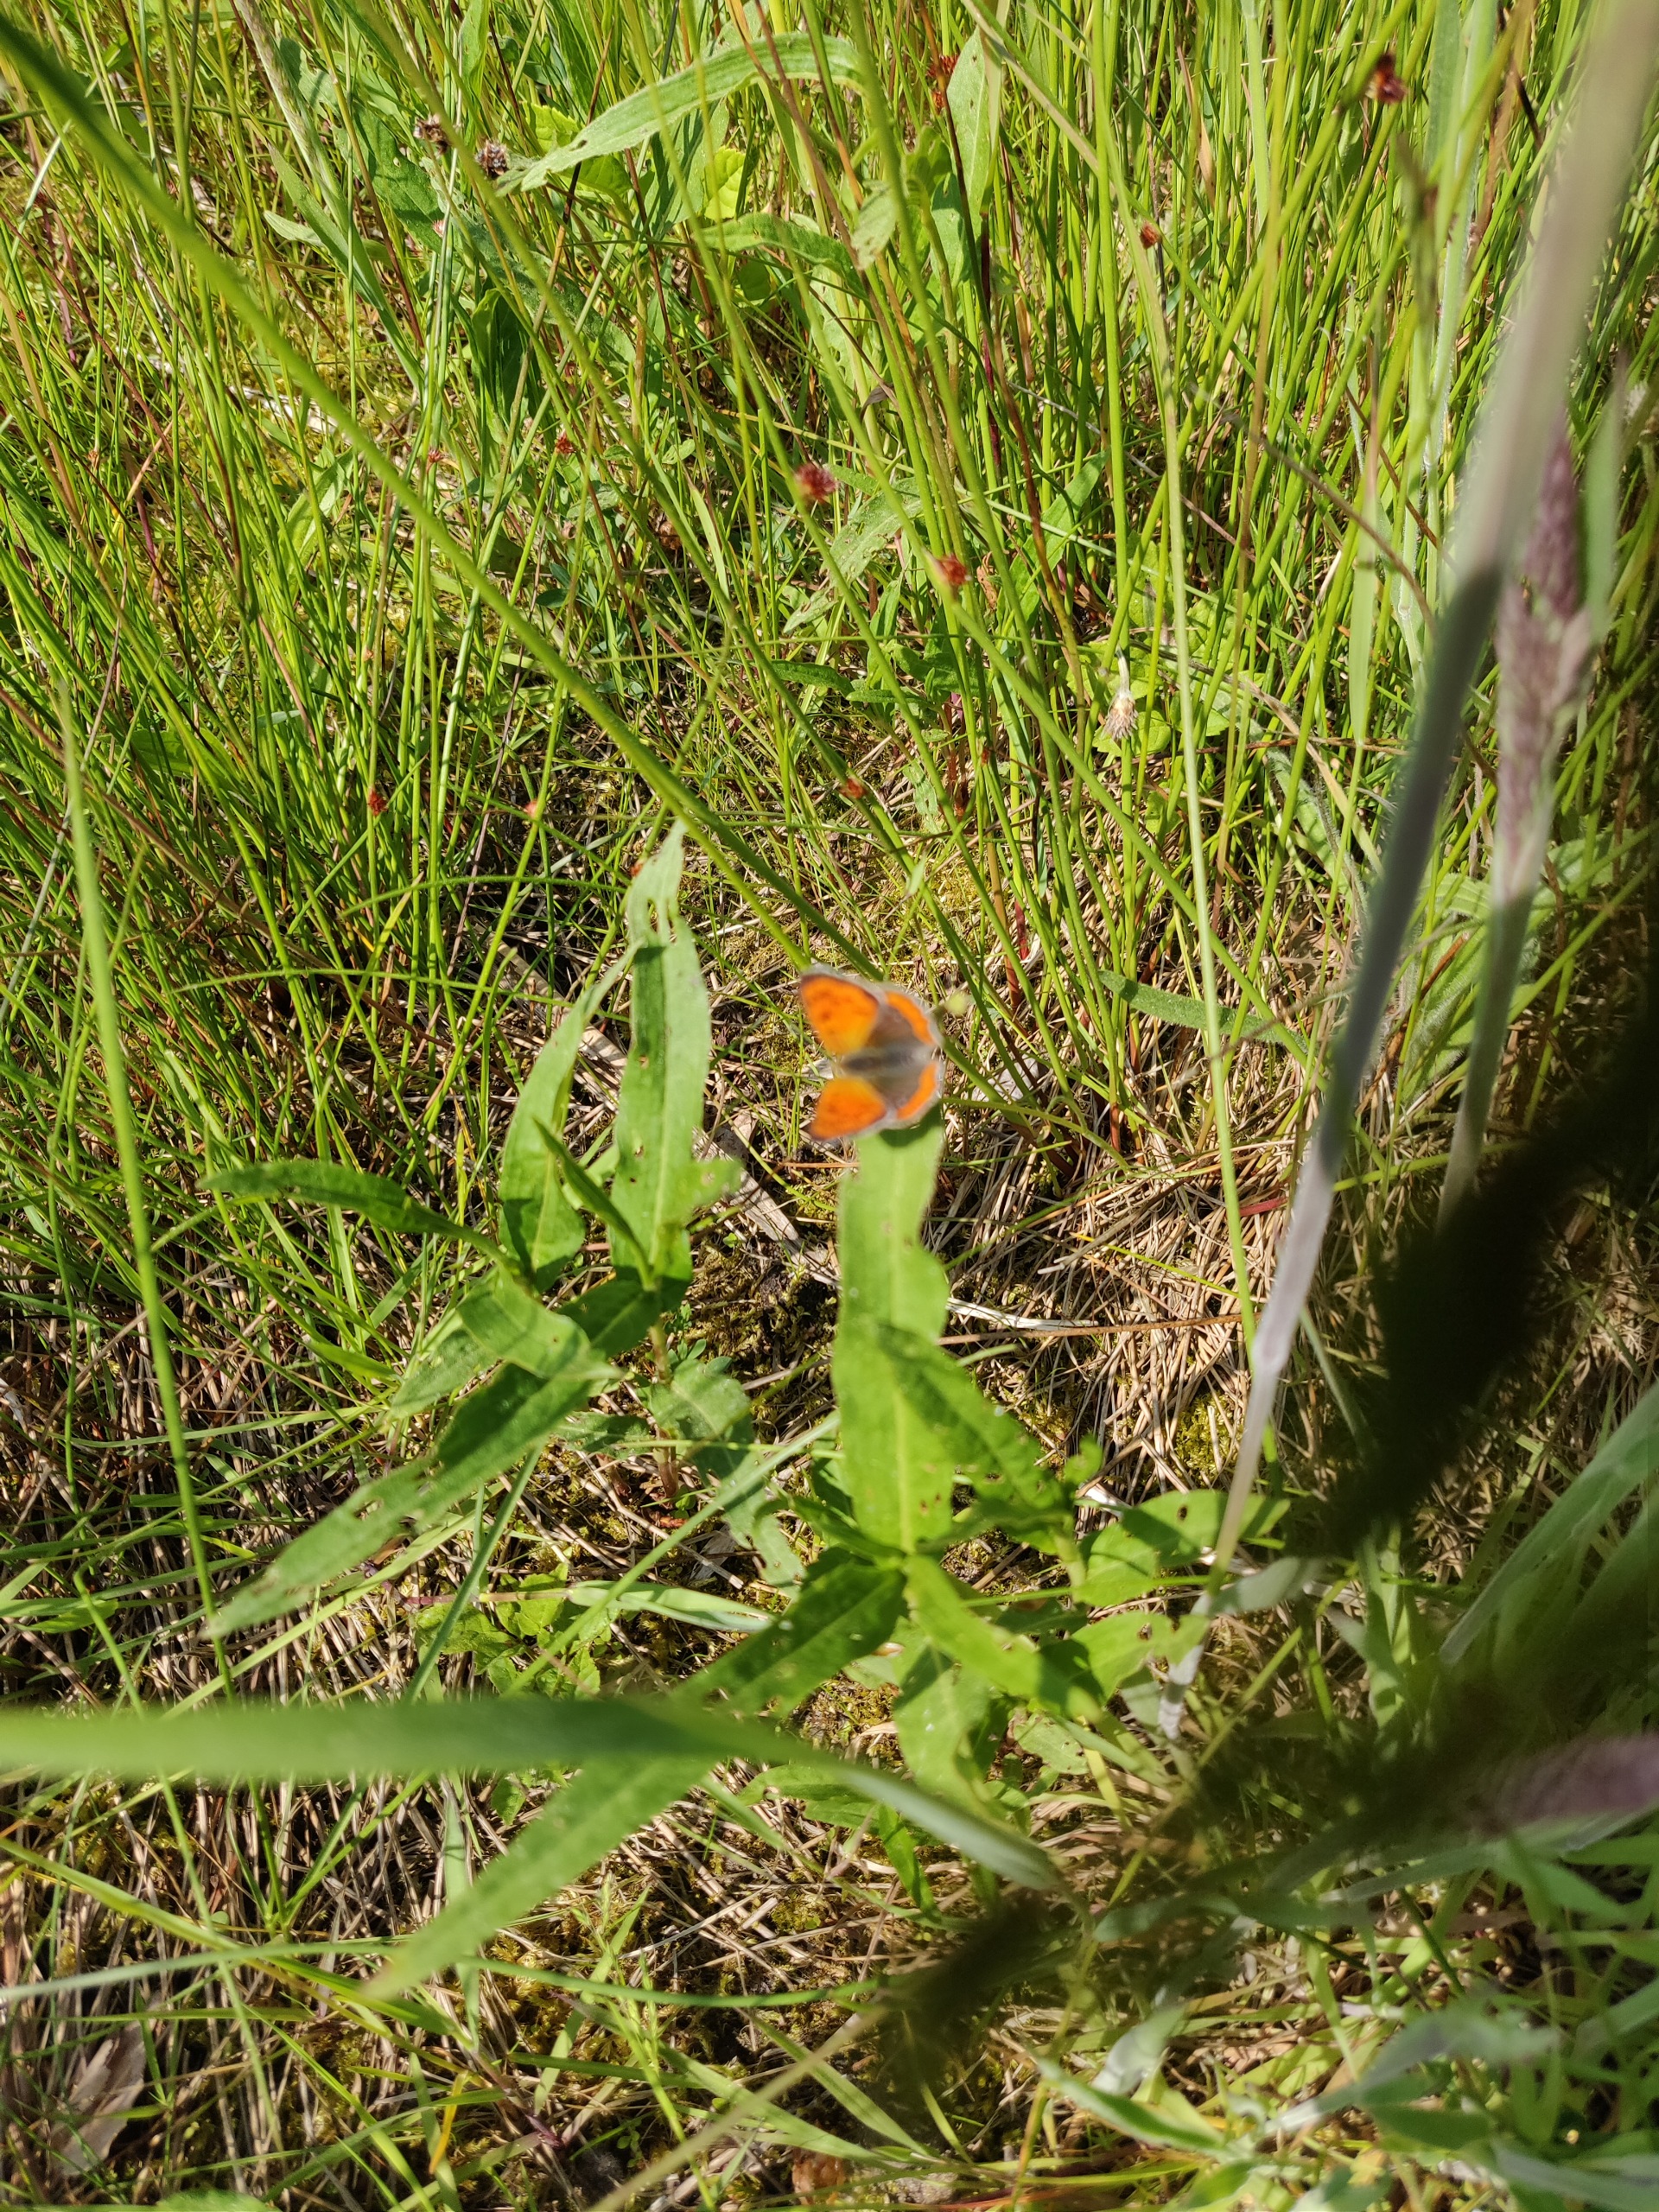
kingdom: Animalia
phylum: Arthropoda
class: Insecta
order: Lepidoptera
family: Lycaenidae
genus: Lycaena
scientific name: Lycaena phlaeas
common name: Lille ildfugl
